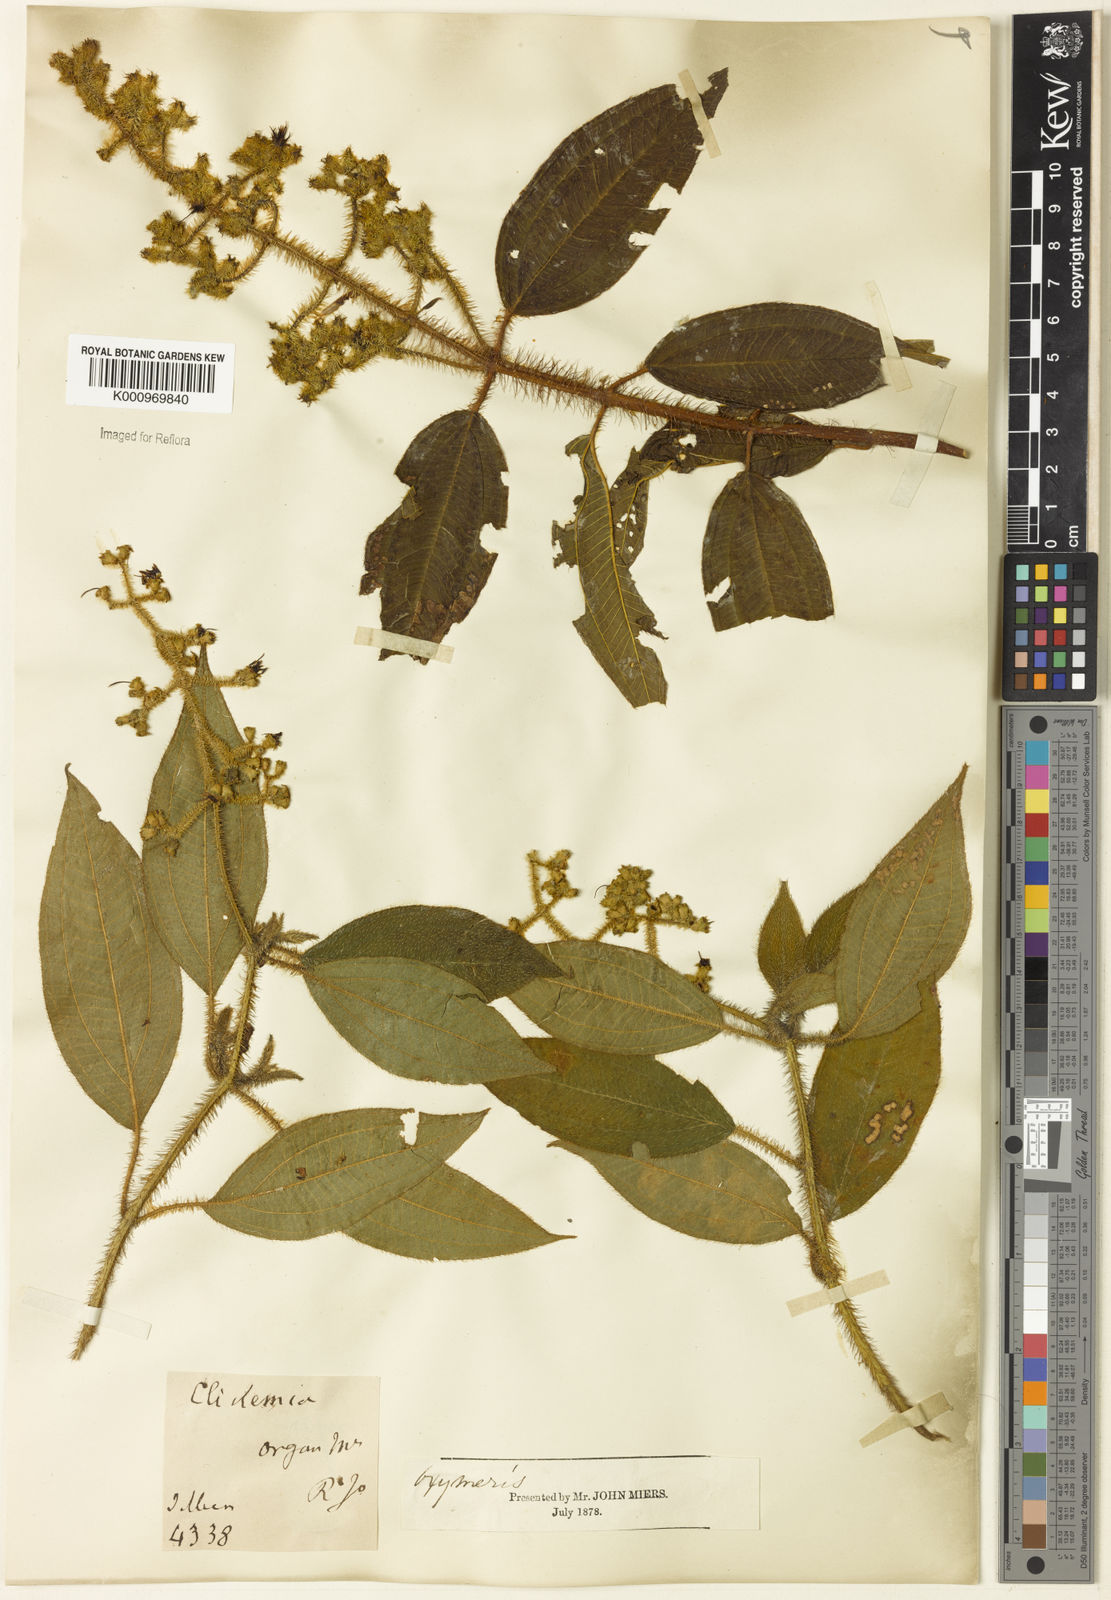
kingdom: Plantae
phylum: Tracheophyta
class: Magnoliopsida
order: Myrtales
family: Melastomataceae
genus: Miconia
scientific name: Miconia
